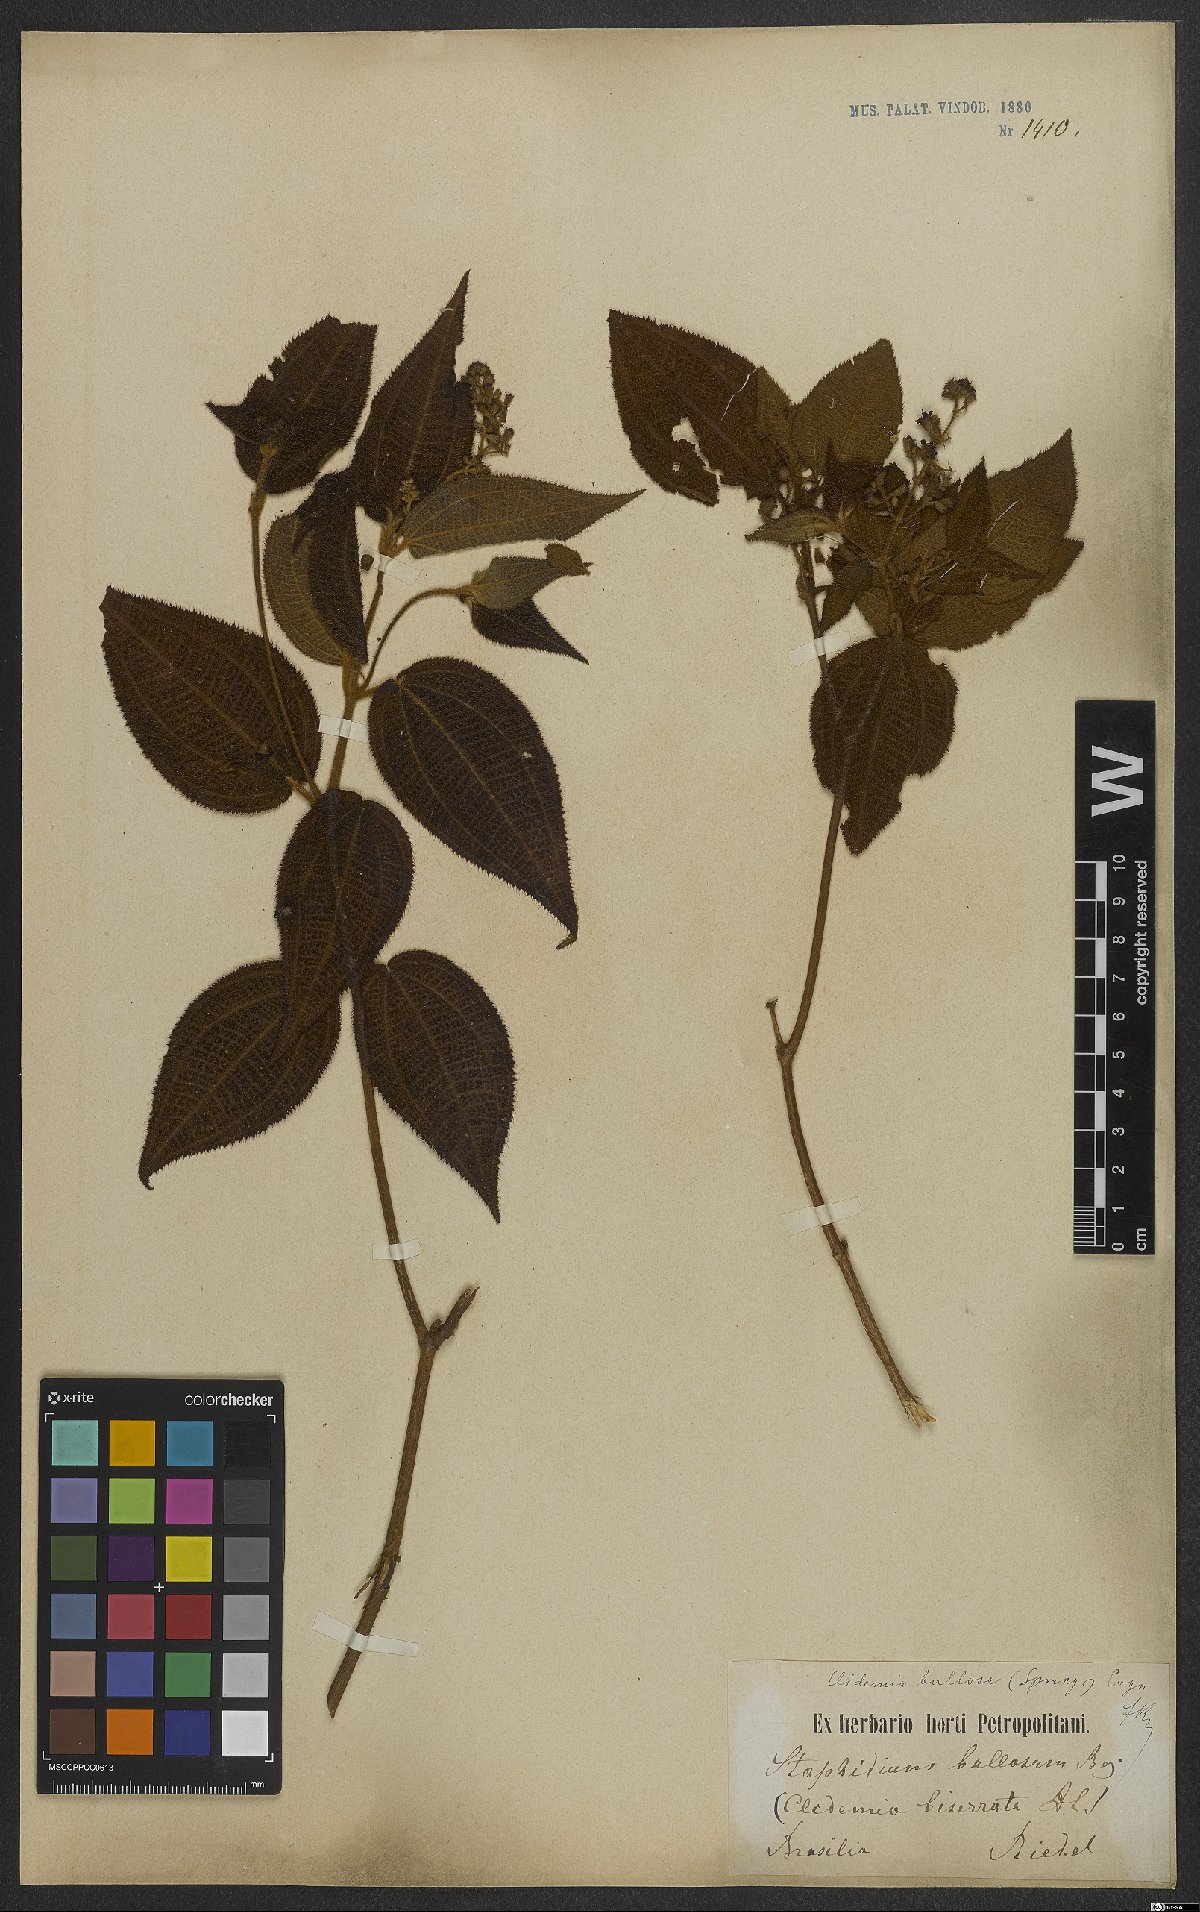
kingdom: Plantae
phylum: Tracheophyta
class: Magnoliopsida
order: Myrtales
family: Melastomataceae
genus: Miconia
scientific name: Miconia bullosa
